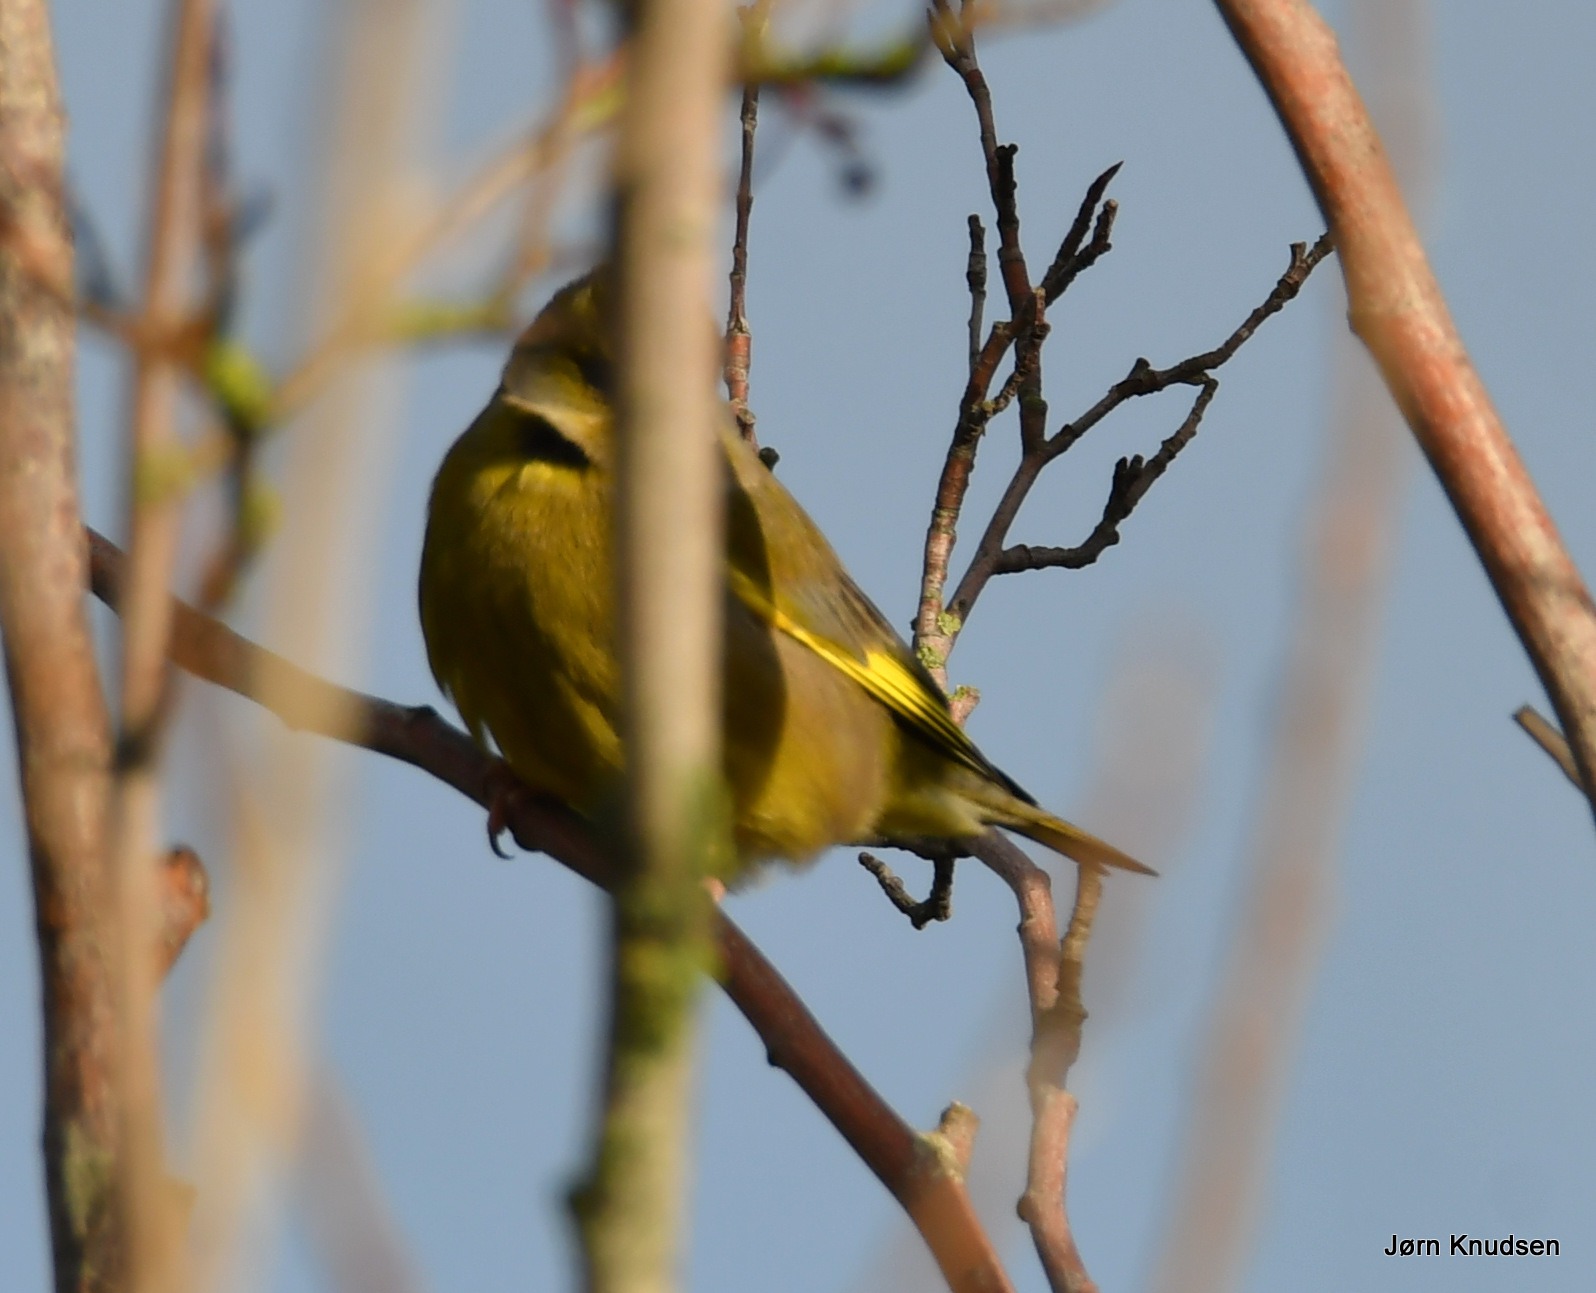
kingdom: Plantae
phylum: Tracheophyta
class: Liliopsida
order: Poales
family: Poaceae
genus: Chloris
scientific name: Chloris chloris
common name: Grønirisk
